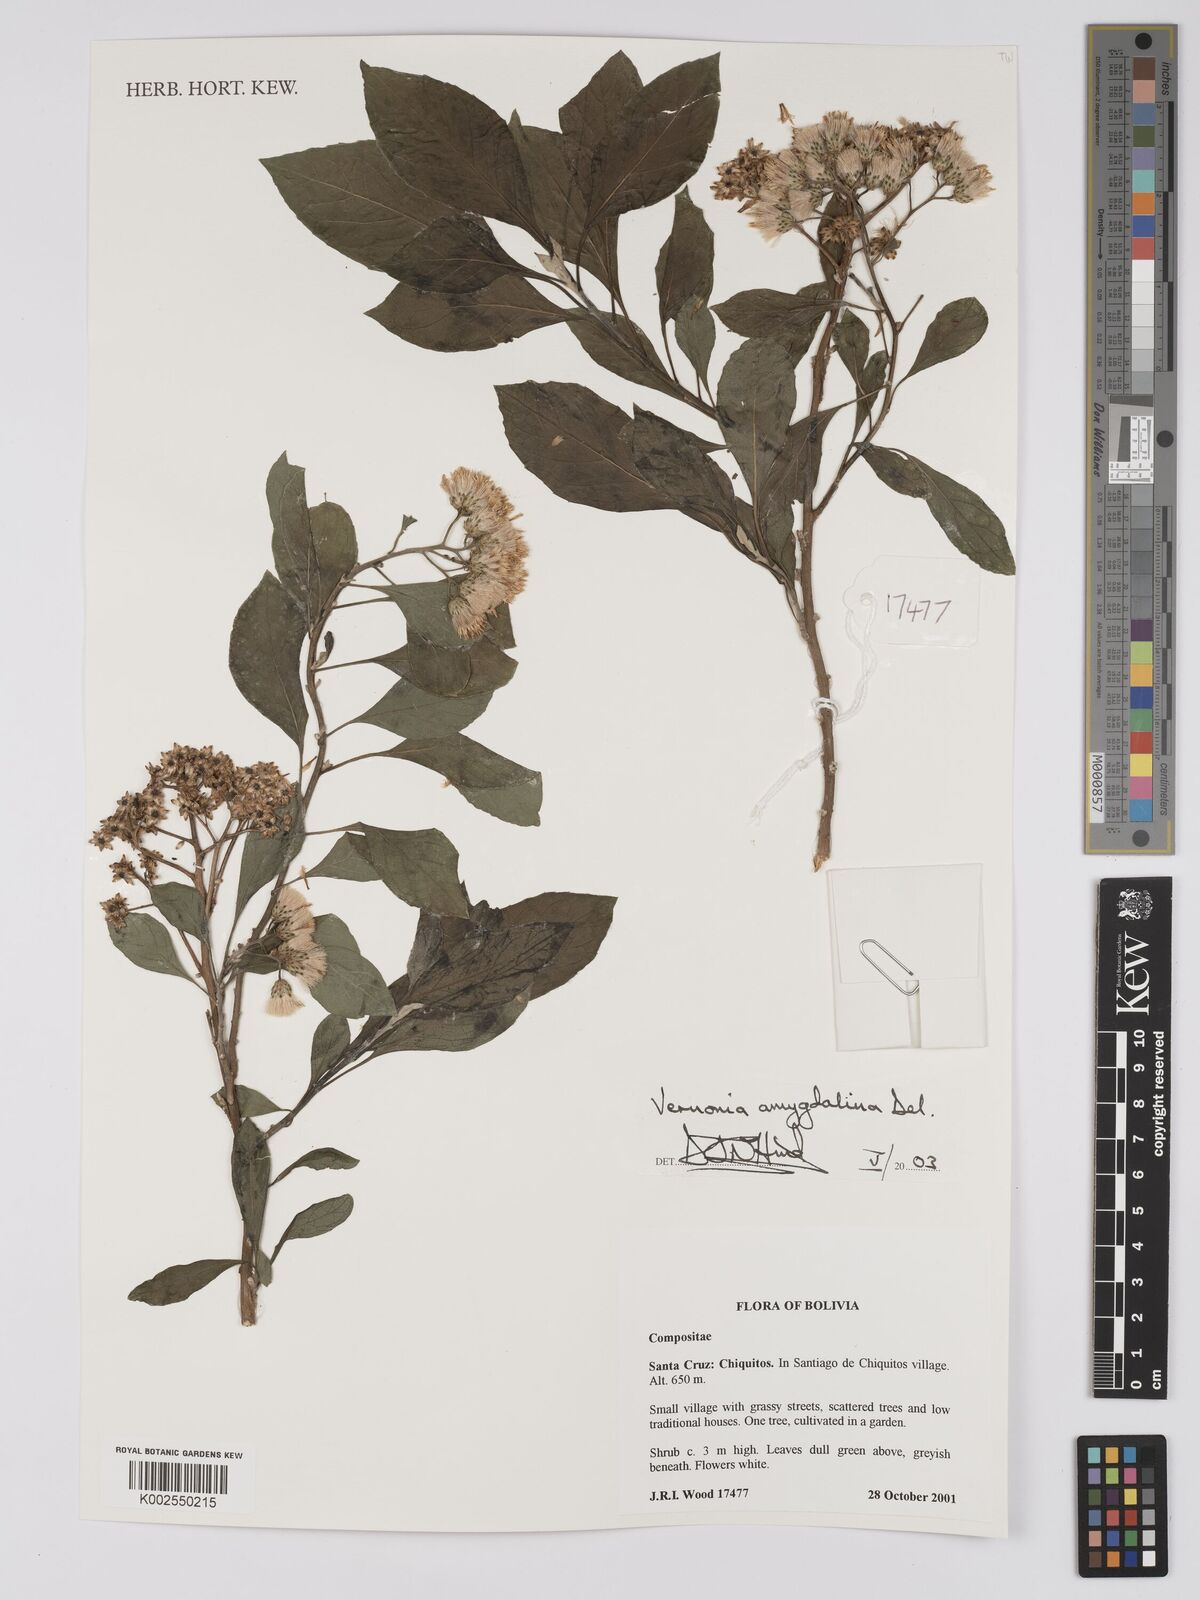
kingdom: Plantae
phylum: Tracheophyta
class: Magnoliopsida
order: Asterales
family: Asteraceae
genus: Gymnanthemum
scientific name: Gymnanthemum amygdalinum
